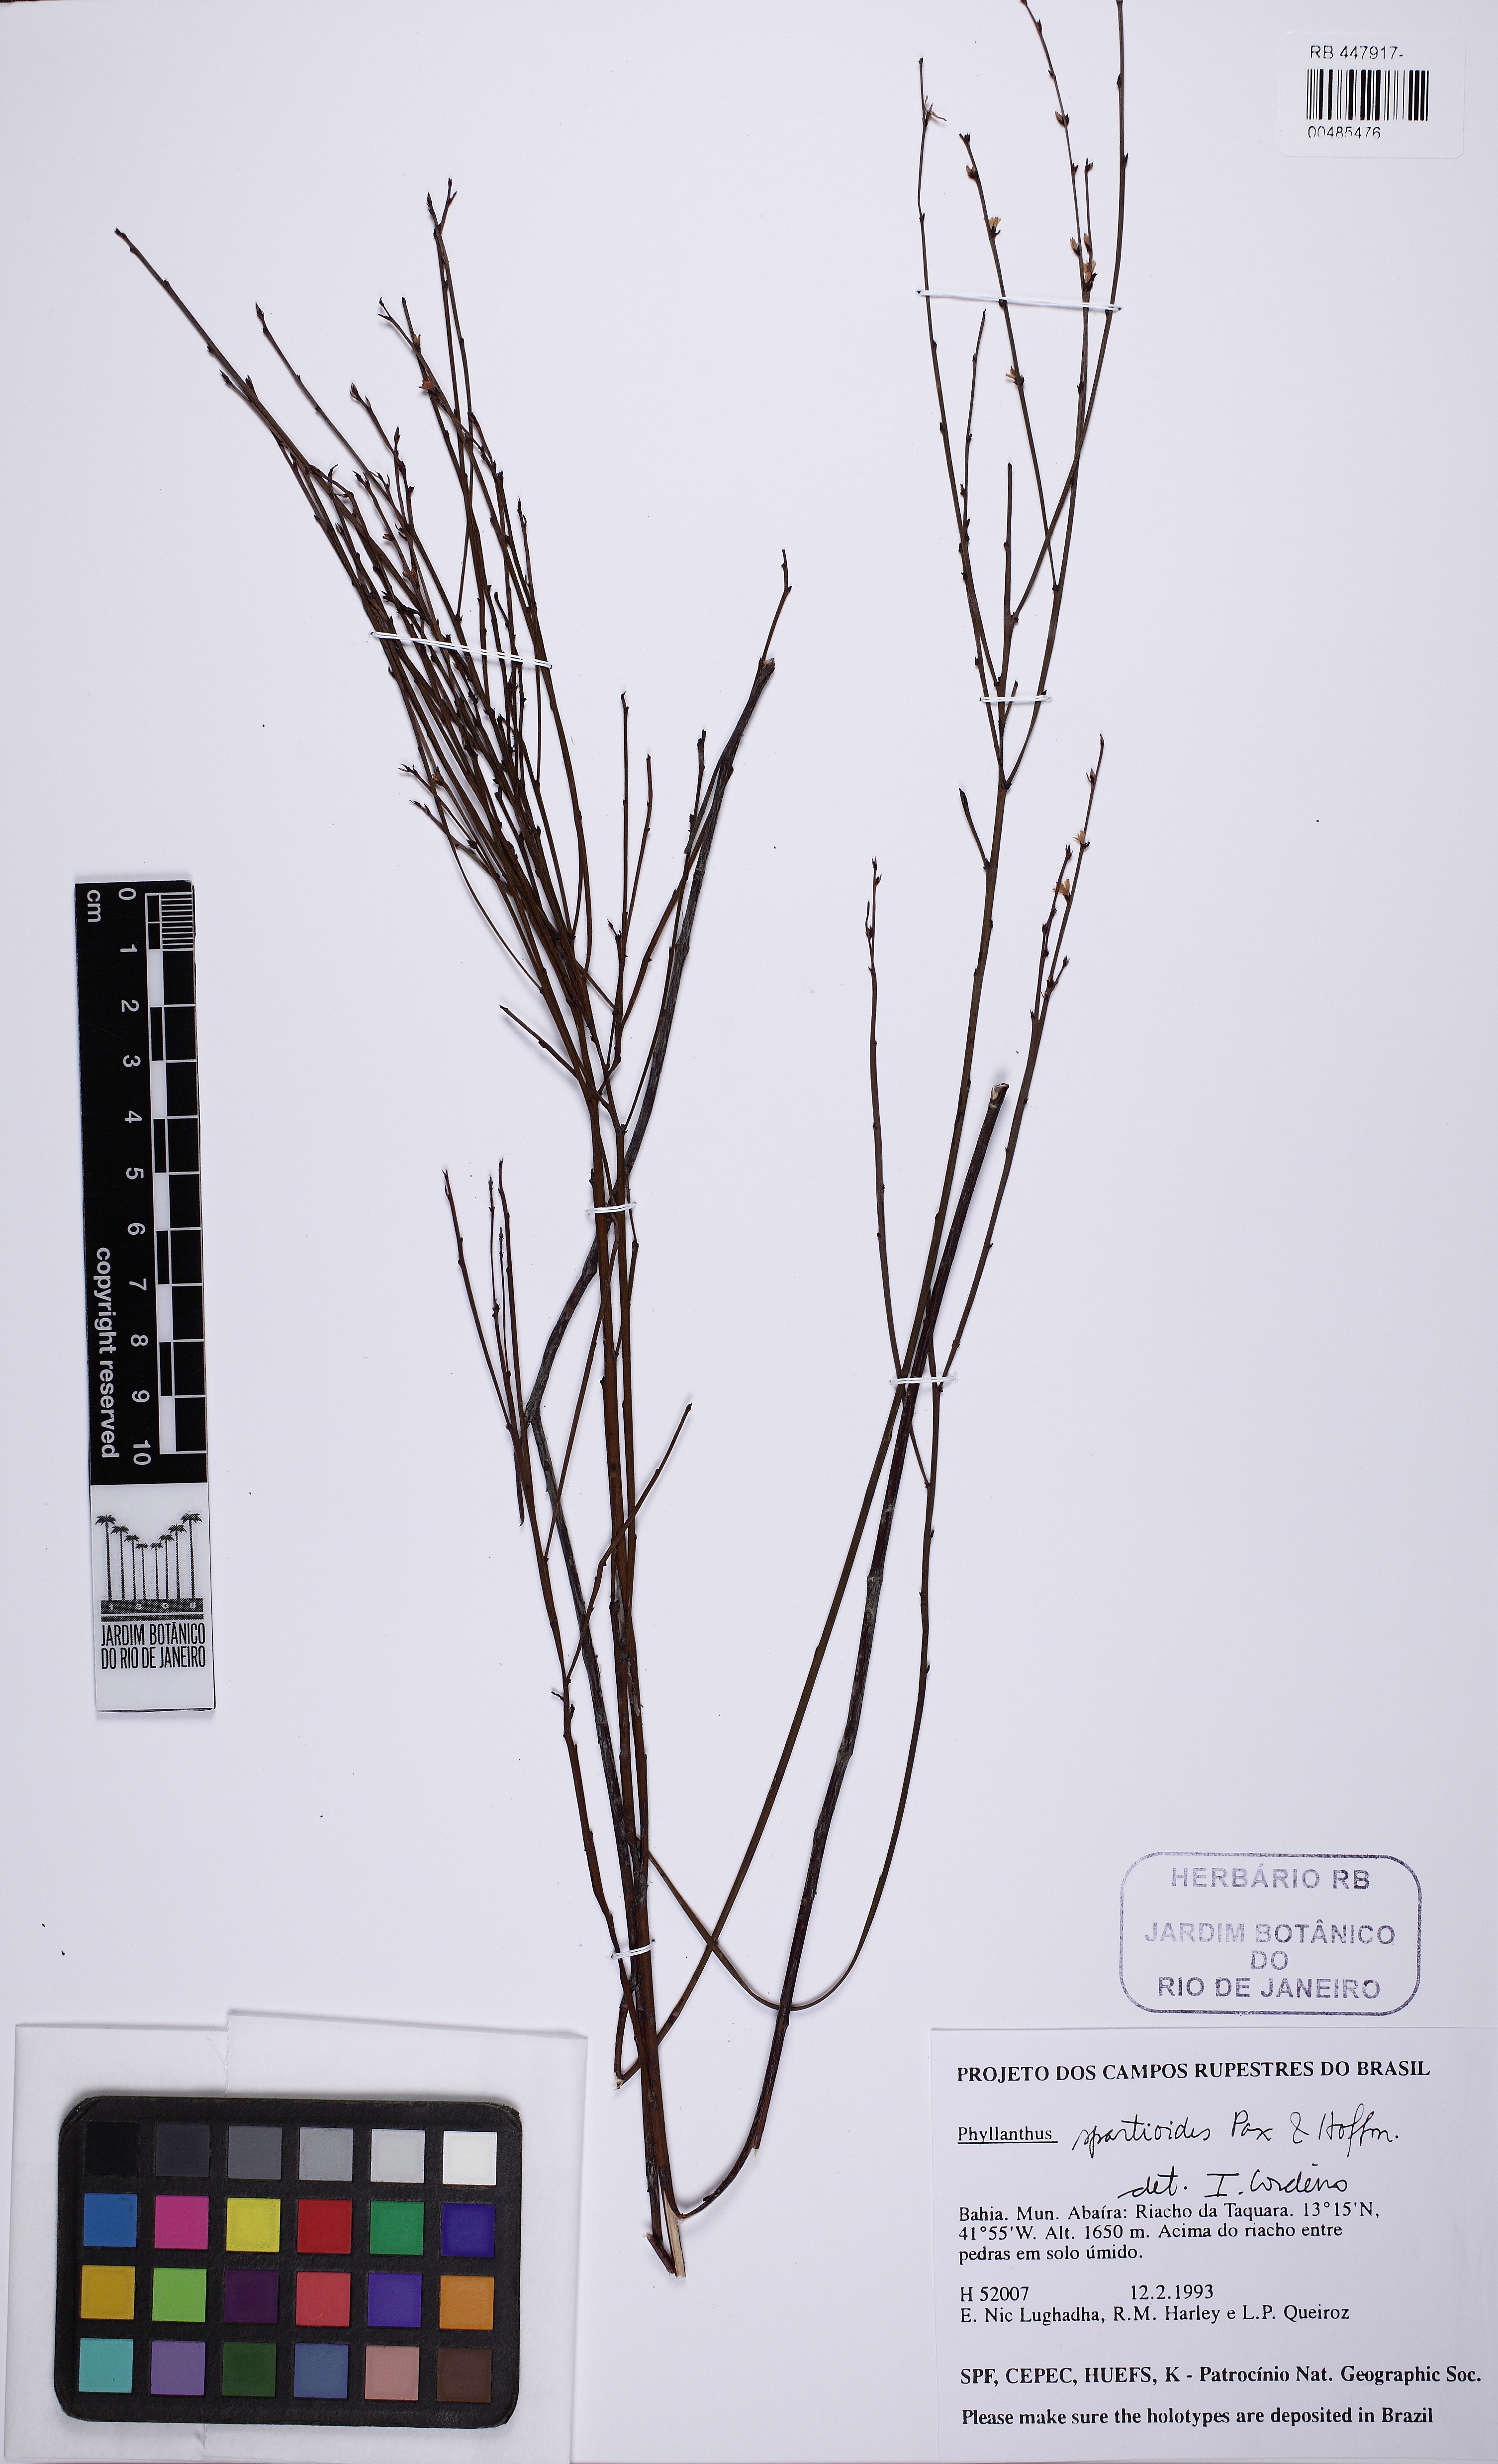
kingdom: Plantae
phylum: Tracheophyta
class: Magnoliopsida
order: Malpighiales
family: Phyllanthaceae
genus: Phyllanthus
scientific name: Phyllanthus spartioides
